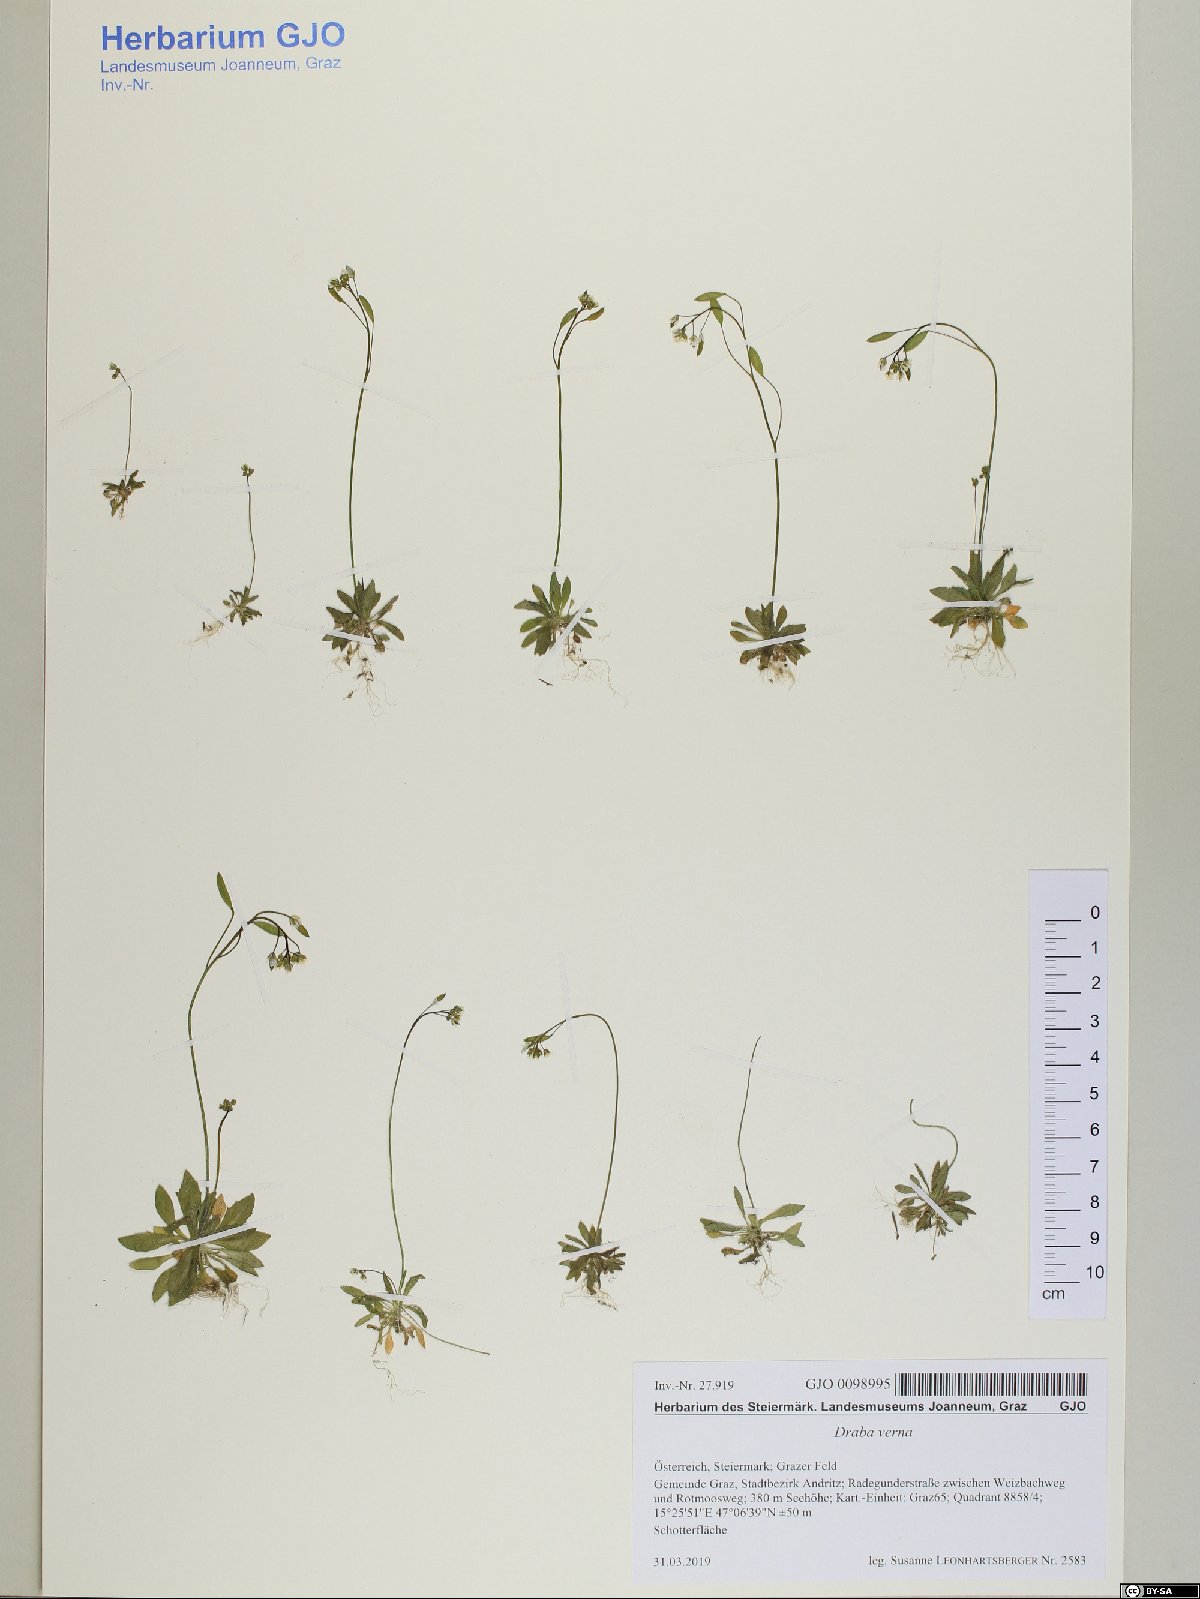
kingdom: Plantae
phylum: Tracheophyta
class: Magnoliopsida
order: Brassicales
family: Brassicaceae
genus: Draba
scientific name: Draba verna
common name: Spring draba
